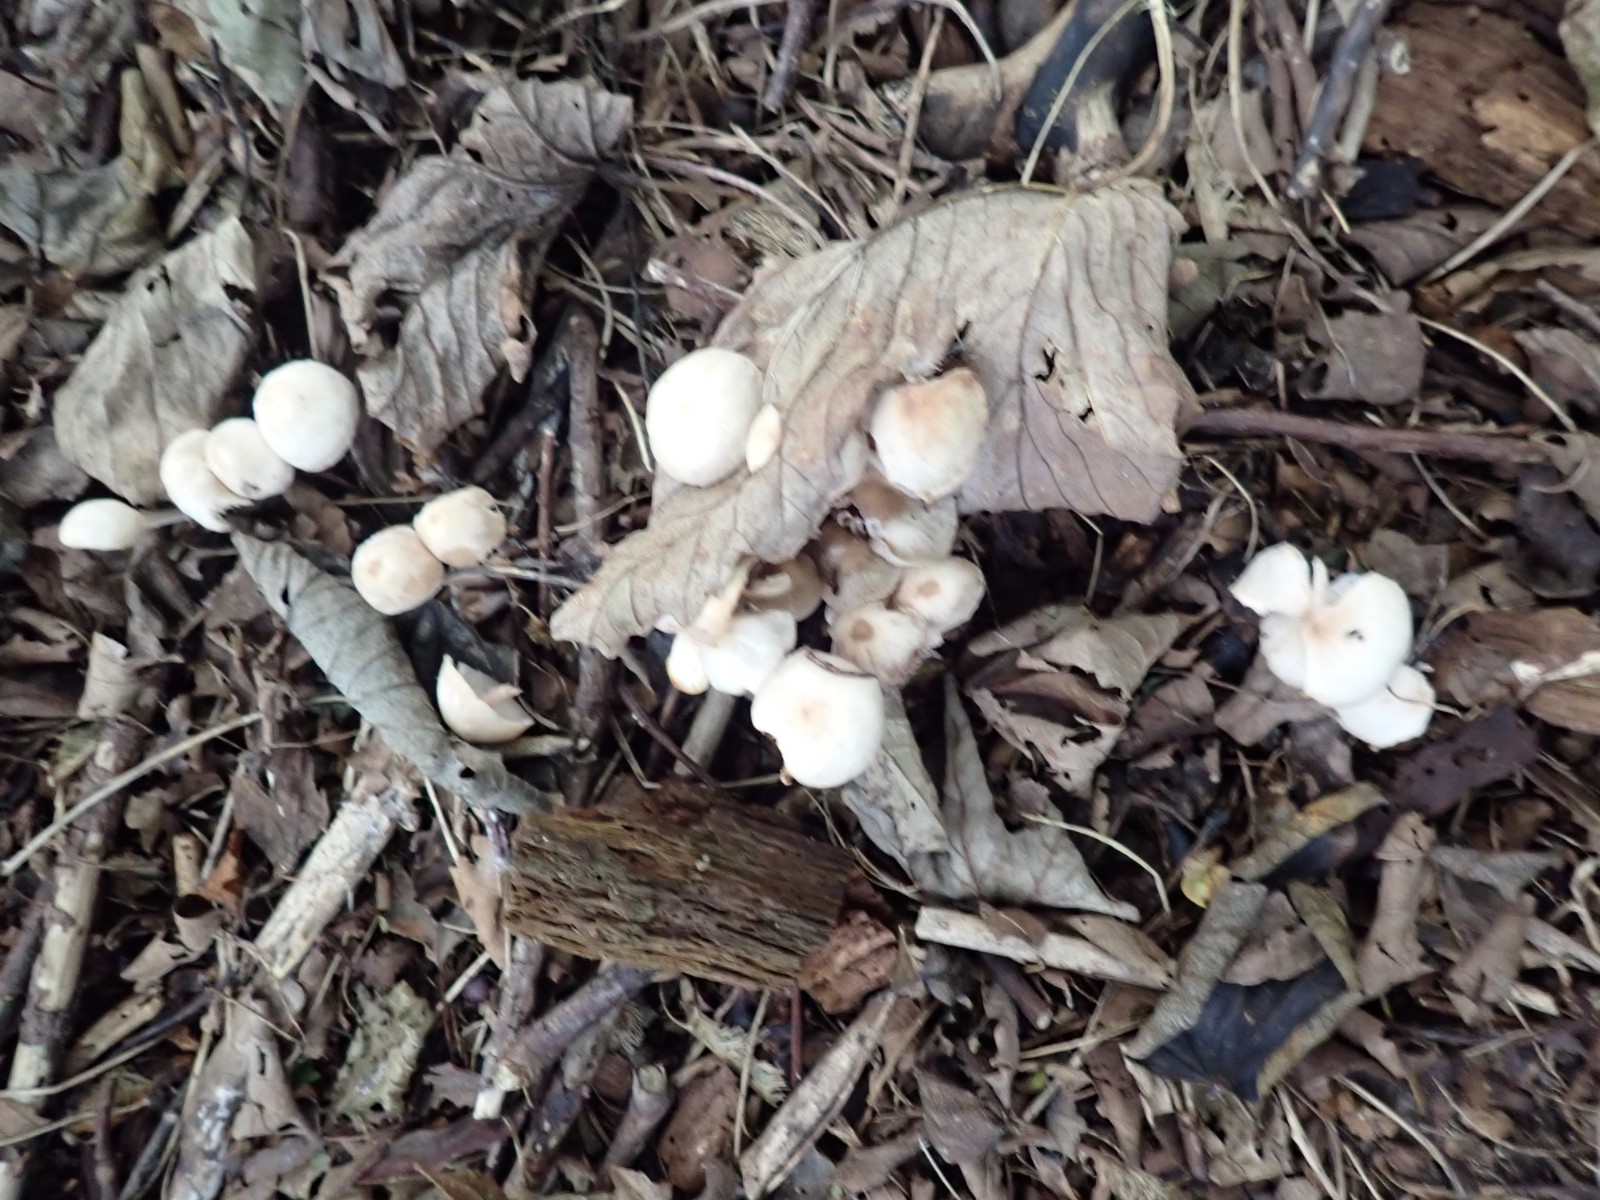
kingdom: Fungi
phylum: Basidiomycota
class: Agaricomycetes
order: Agaricales
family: Omphalotaceae
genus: Collybiopsis
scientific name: Collybiopsis confluens
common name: knippe-fladhat
